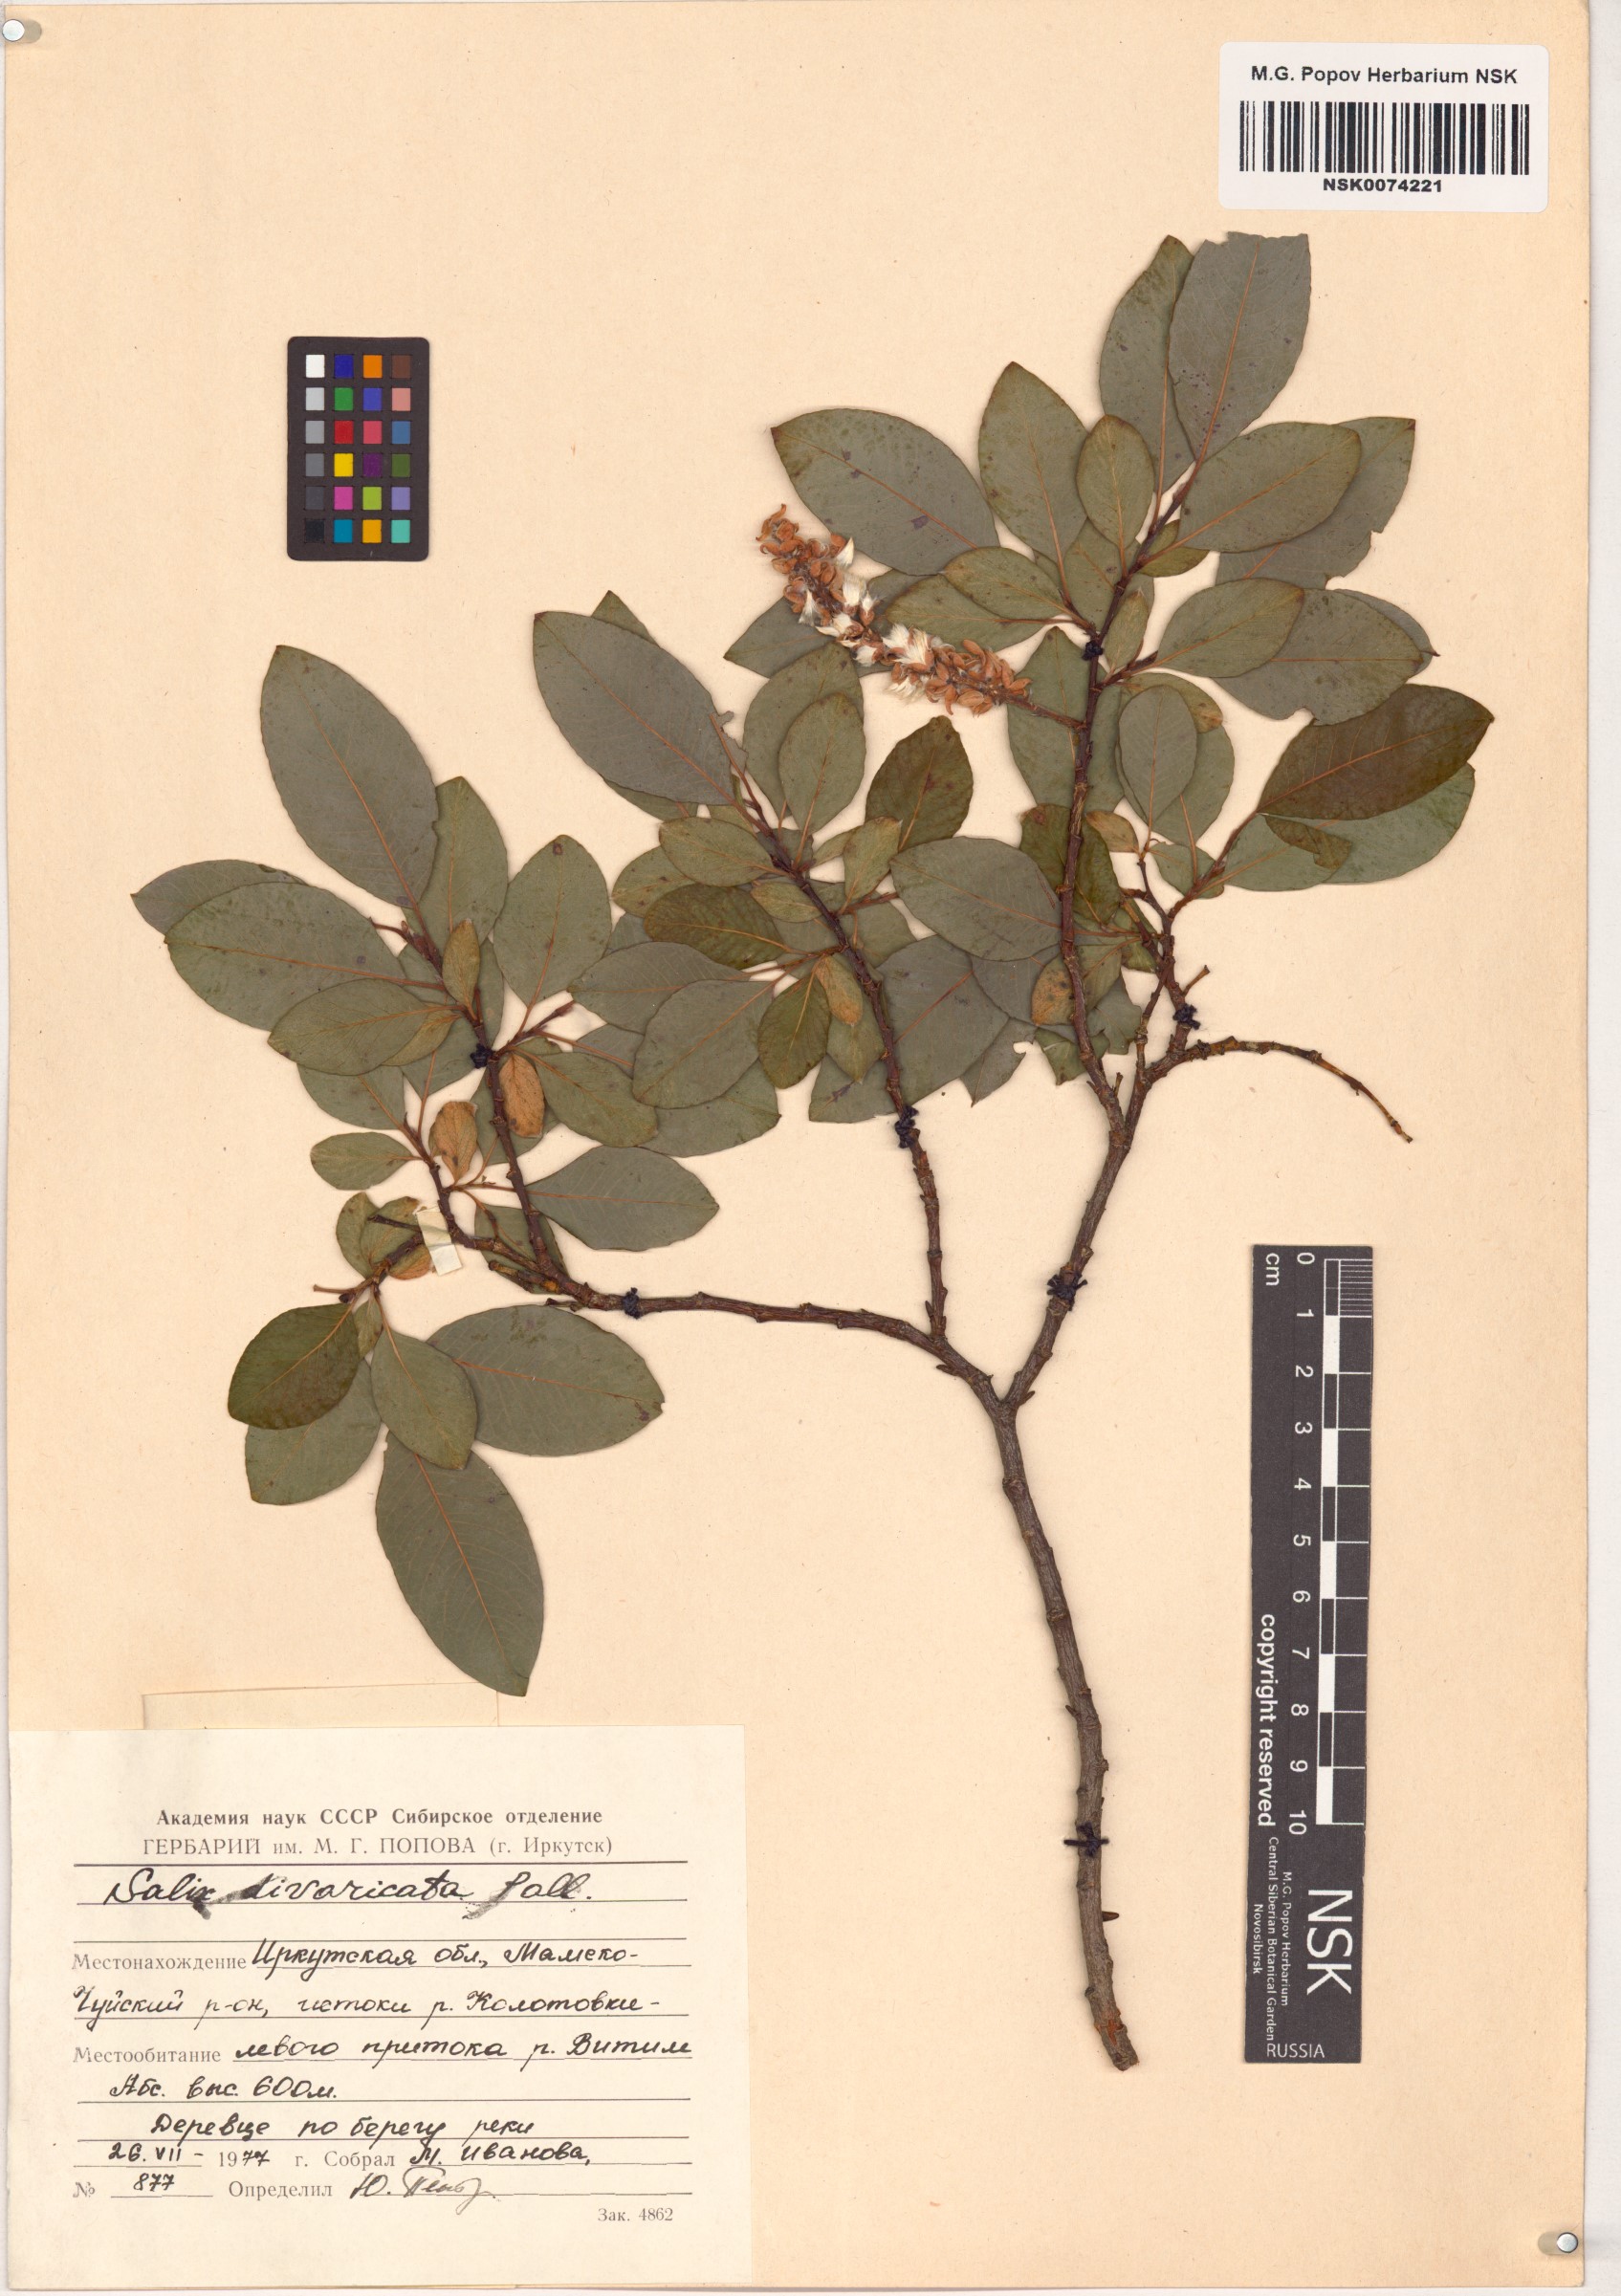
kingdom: Plantae
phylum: Tracheophyta
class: Magnoliopsida
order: Malpighiales
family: Salicaceae
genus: Salix
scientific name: Salix divaricata
